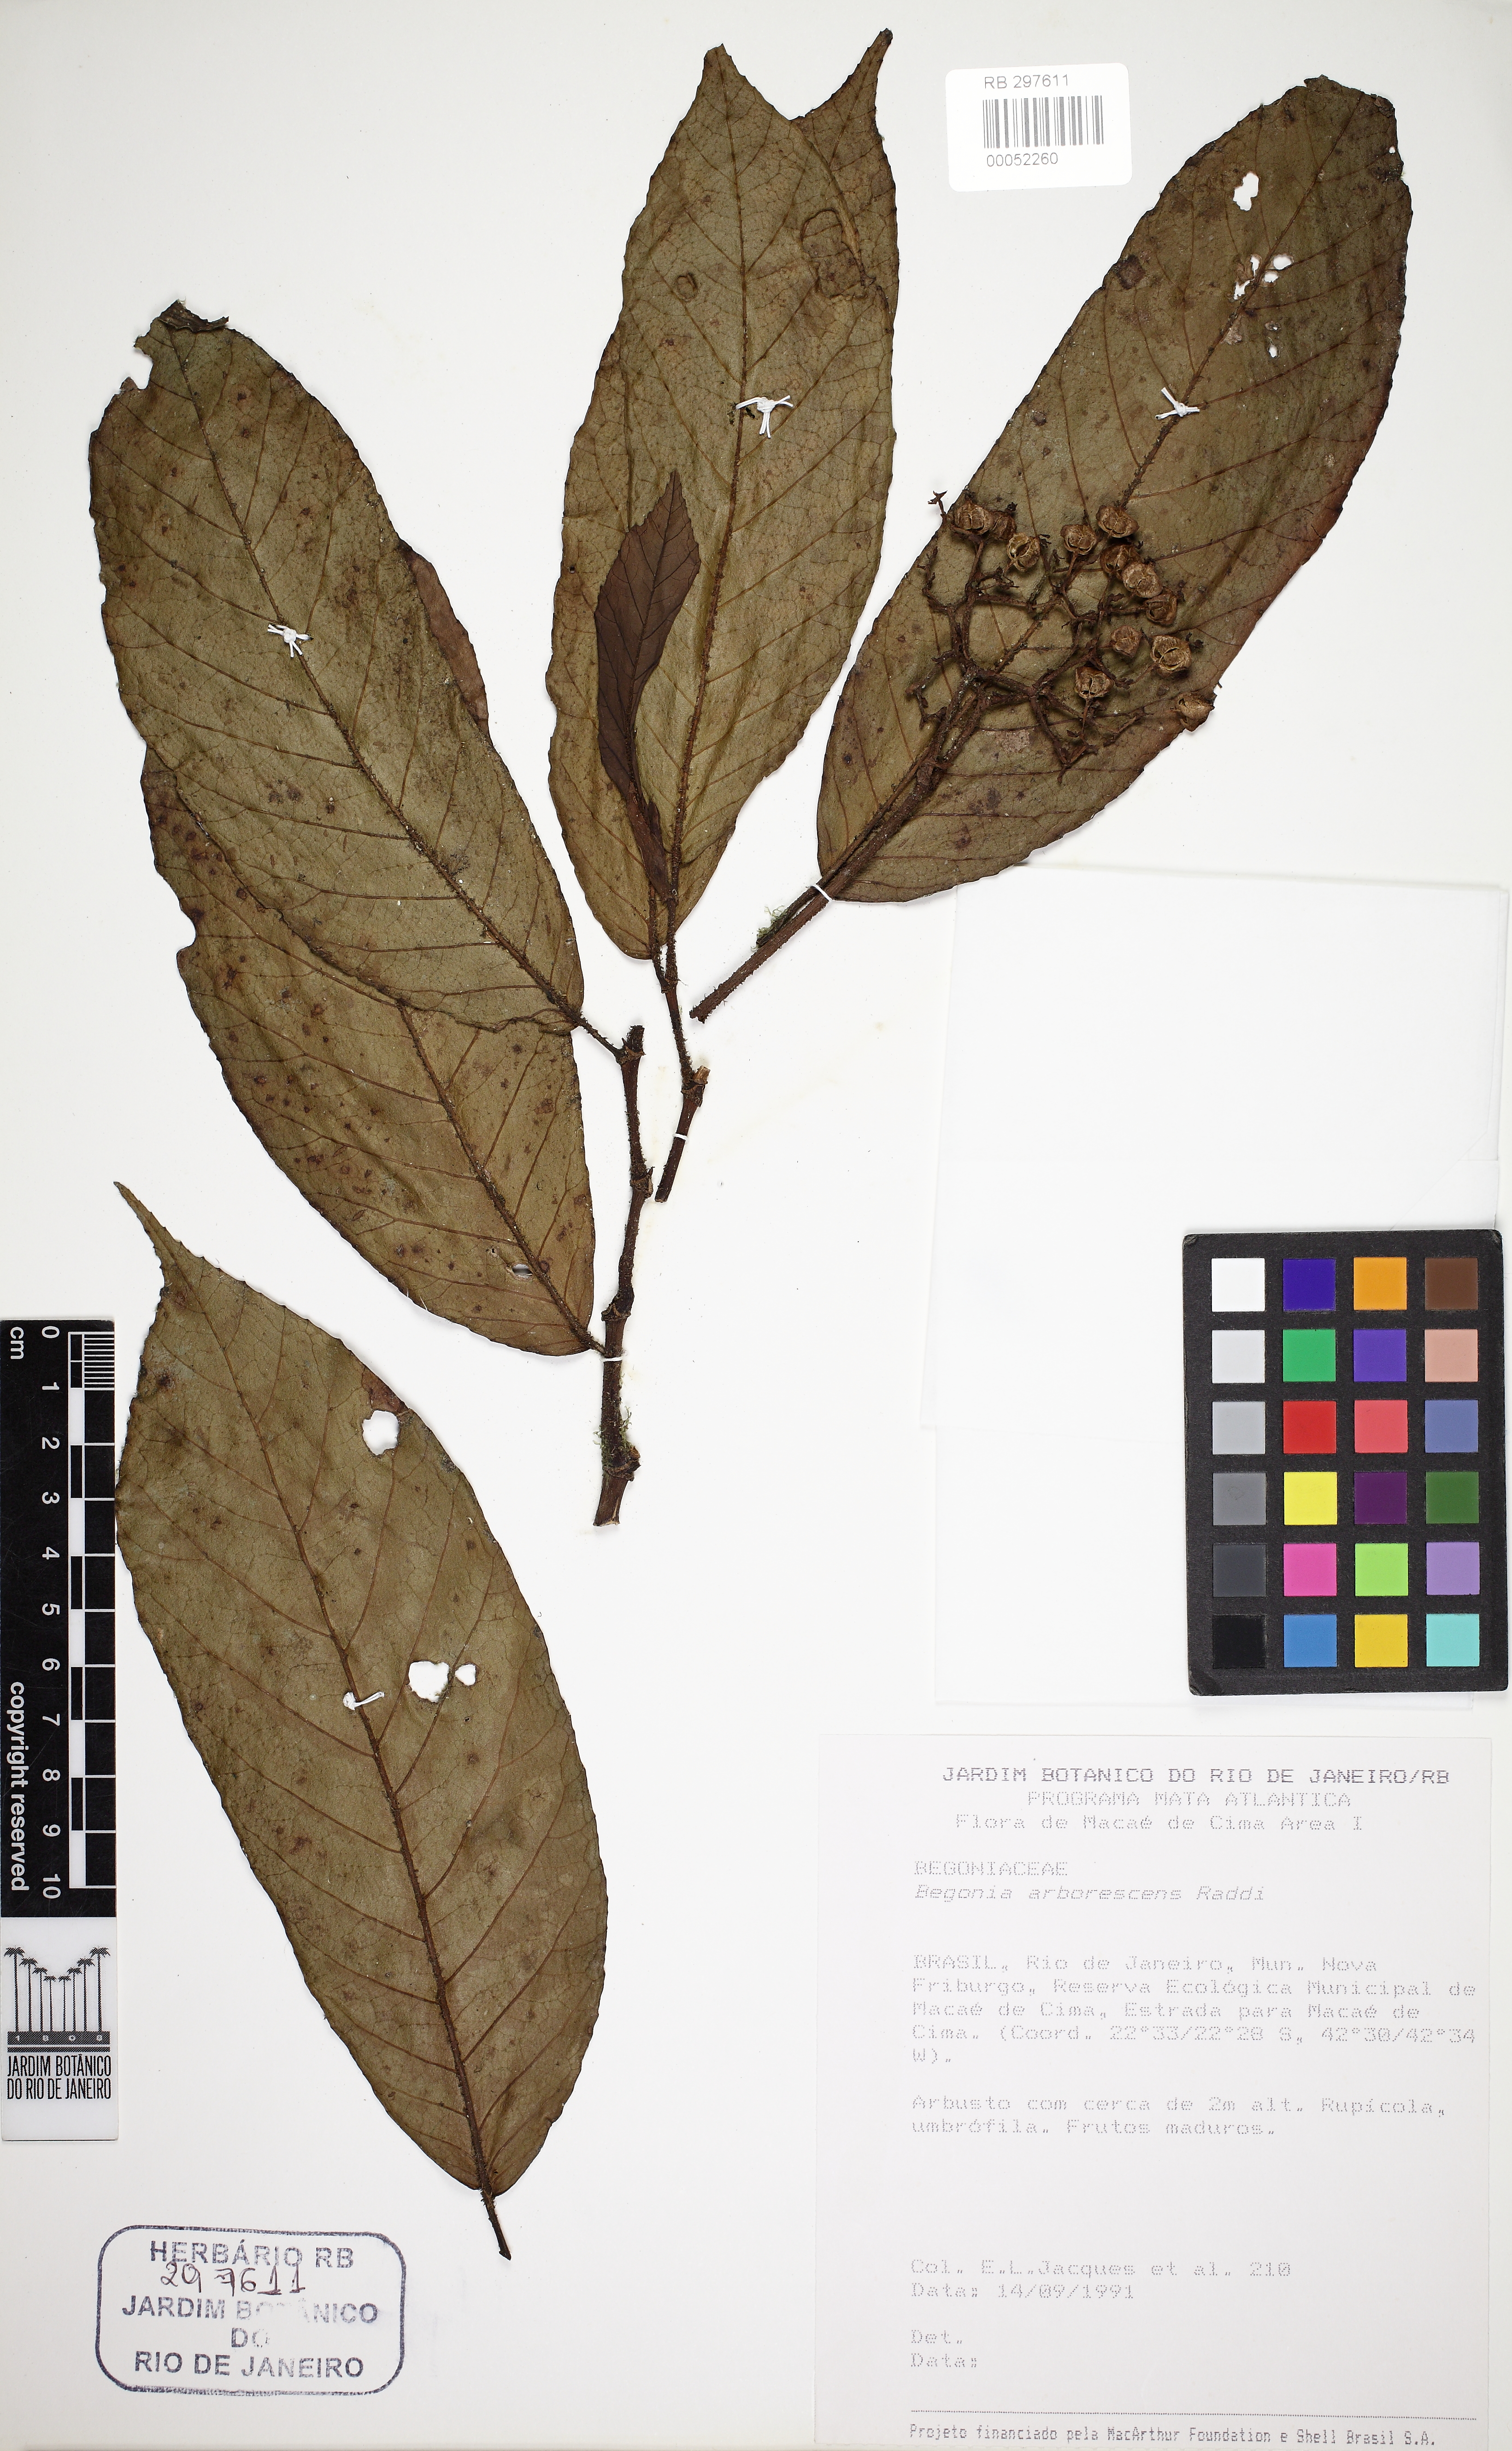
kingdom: Plantae
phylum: Tracheophyta
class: Magnoliopsida
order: Cucurbitales
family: Begoniaceae
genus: Begonia
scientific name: Begonia arborescens
